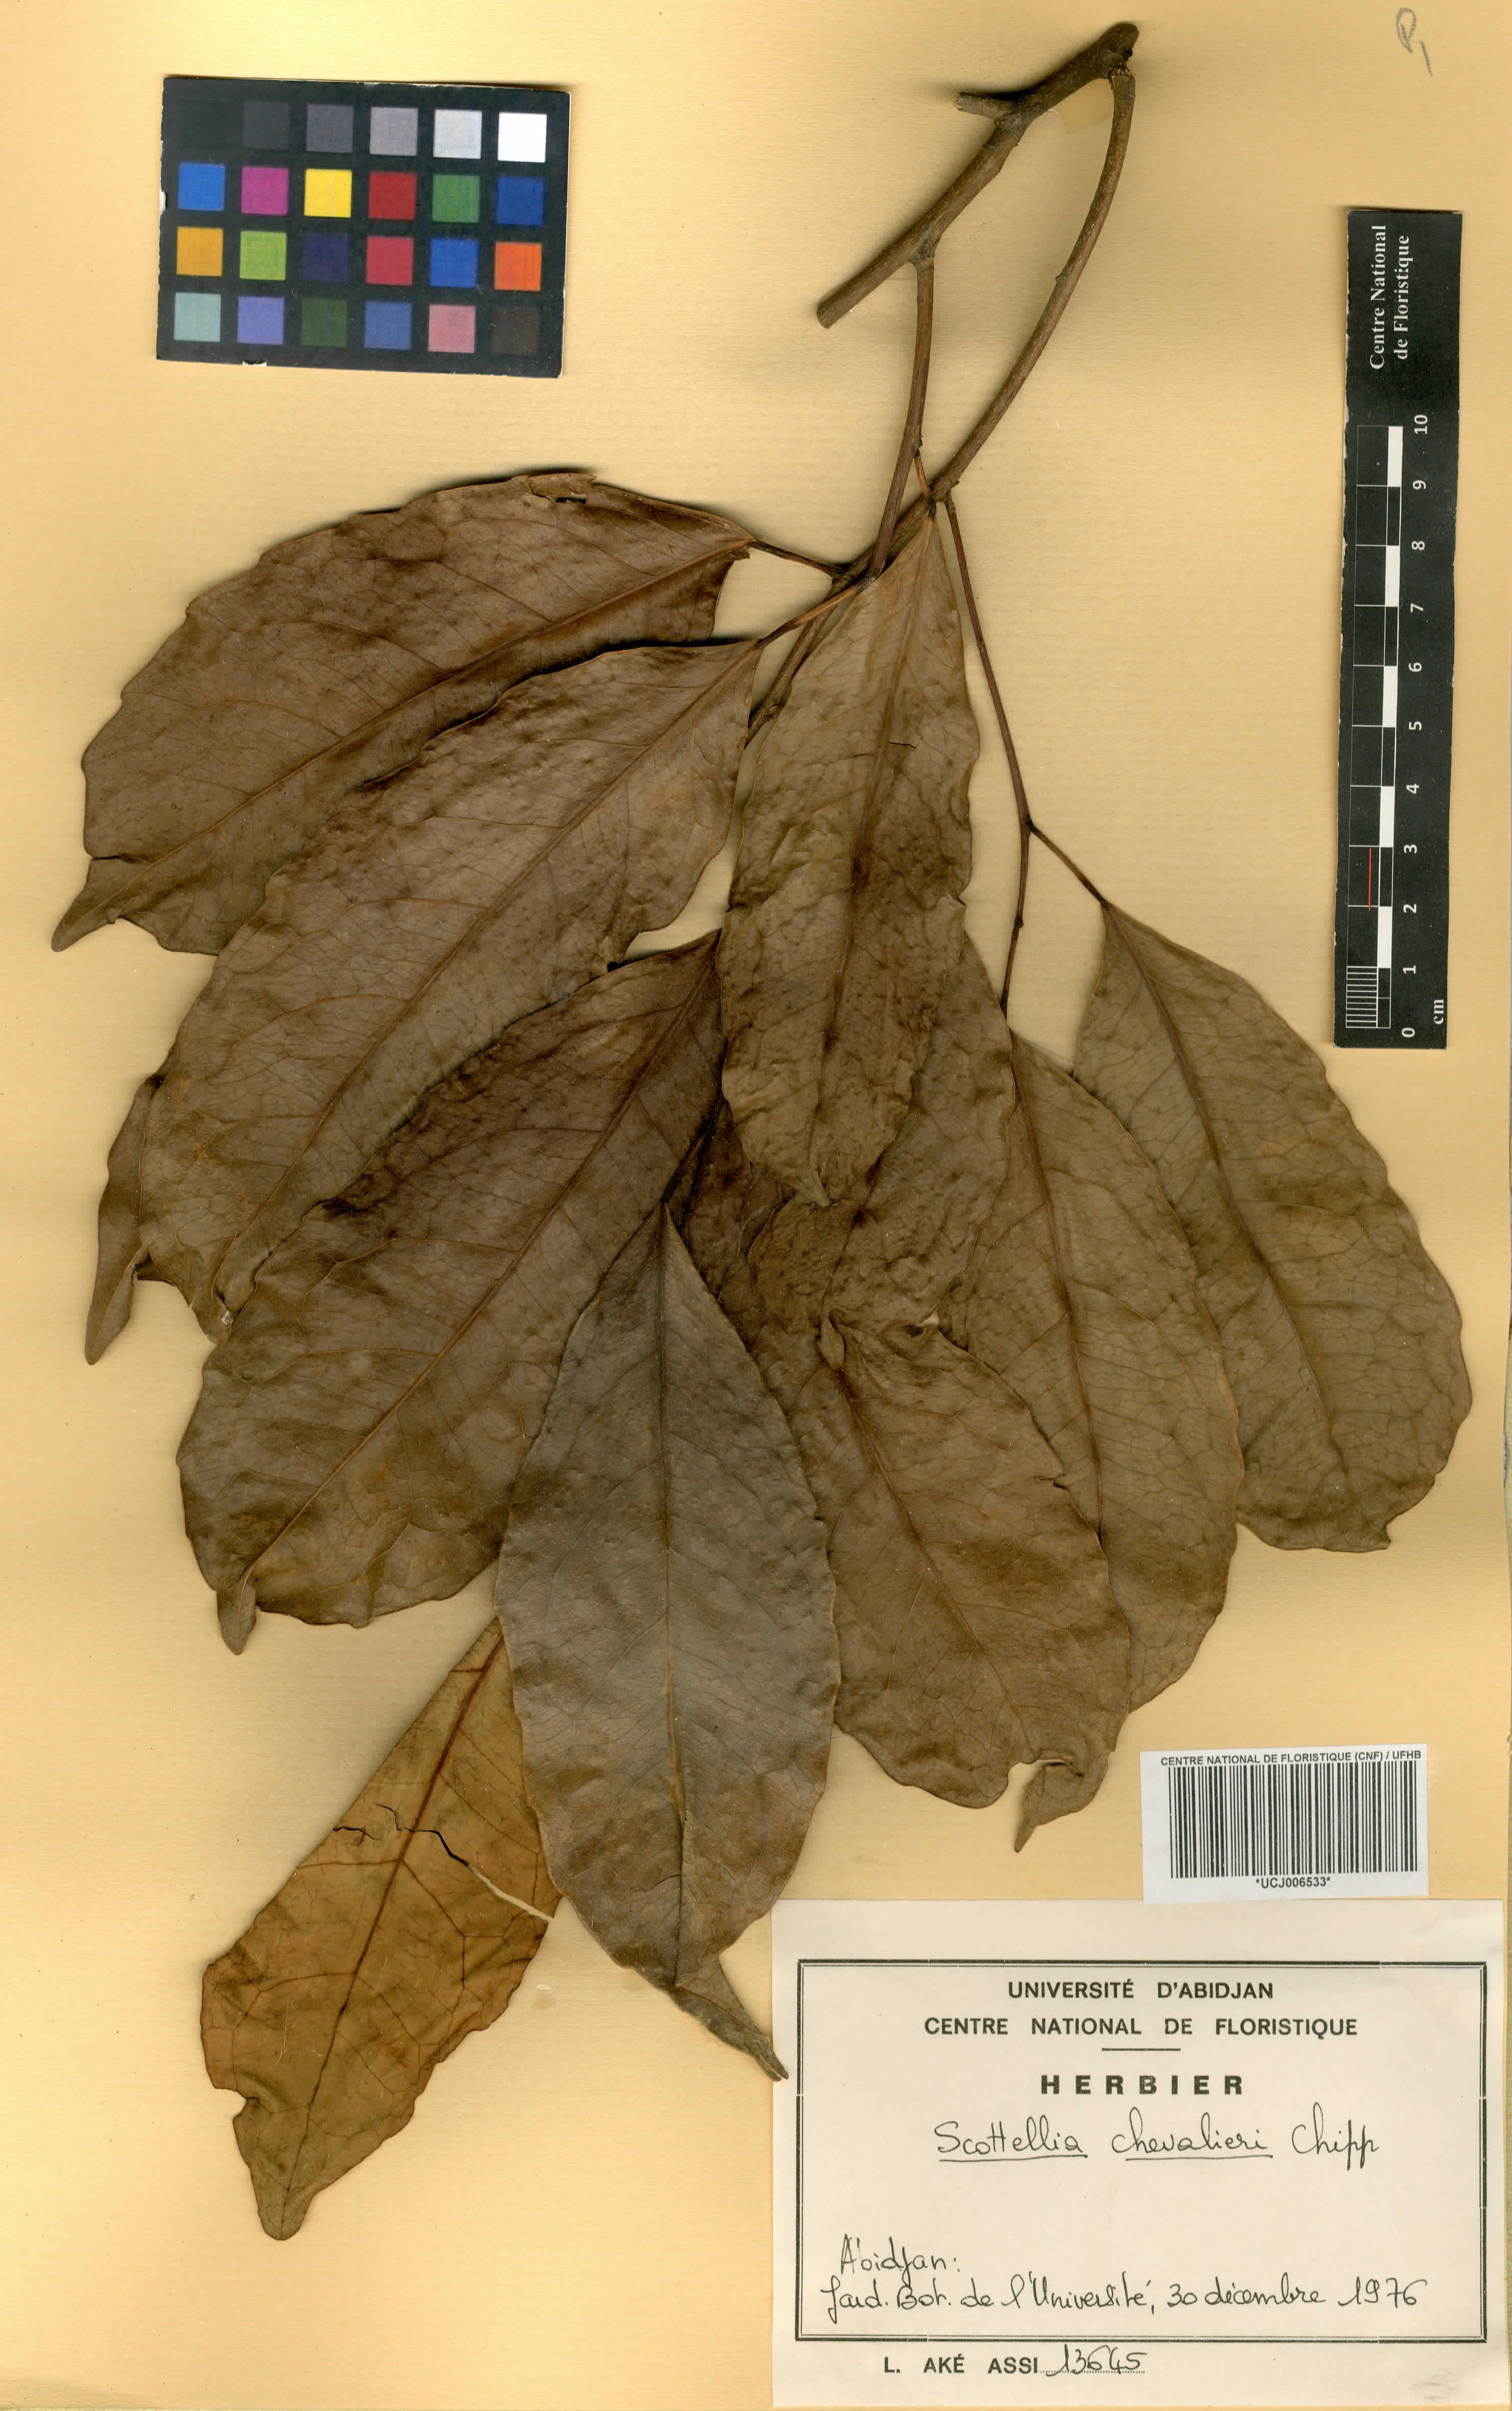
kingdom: Plantae
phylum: Tracheophyta
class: Magnoliopsida
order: Malpighiales
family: Achariaceae
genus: Scottellia
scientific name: Scottellia klaineana
